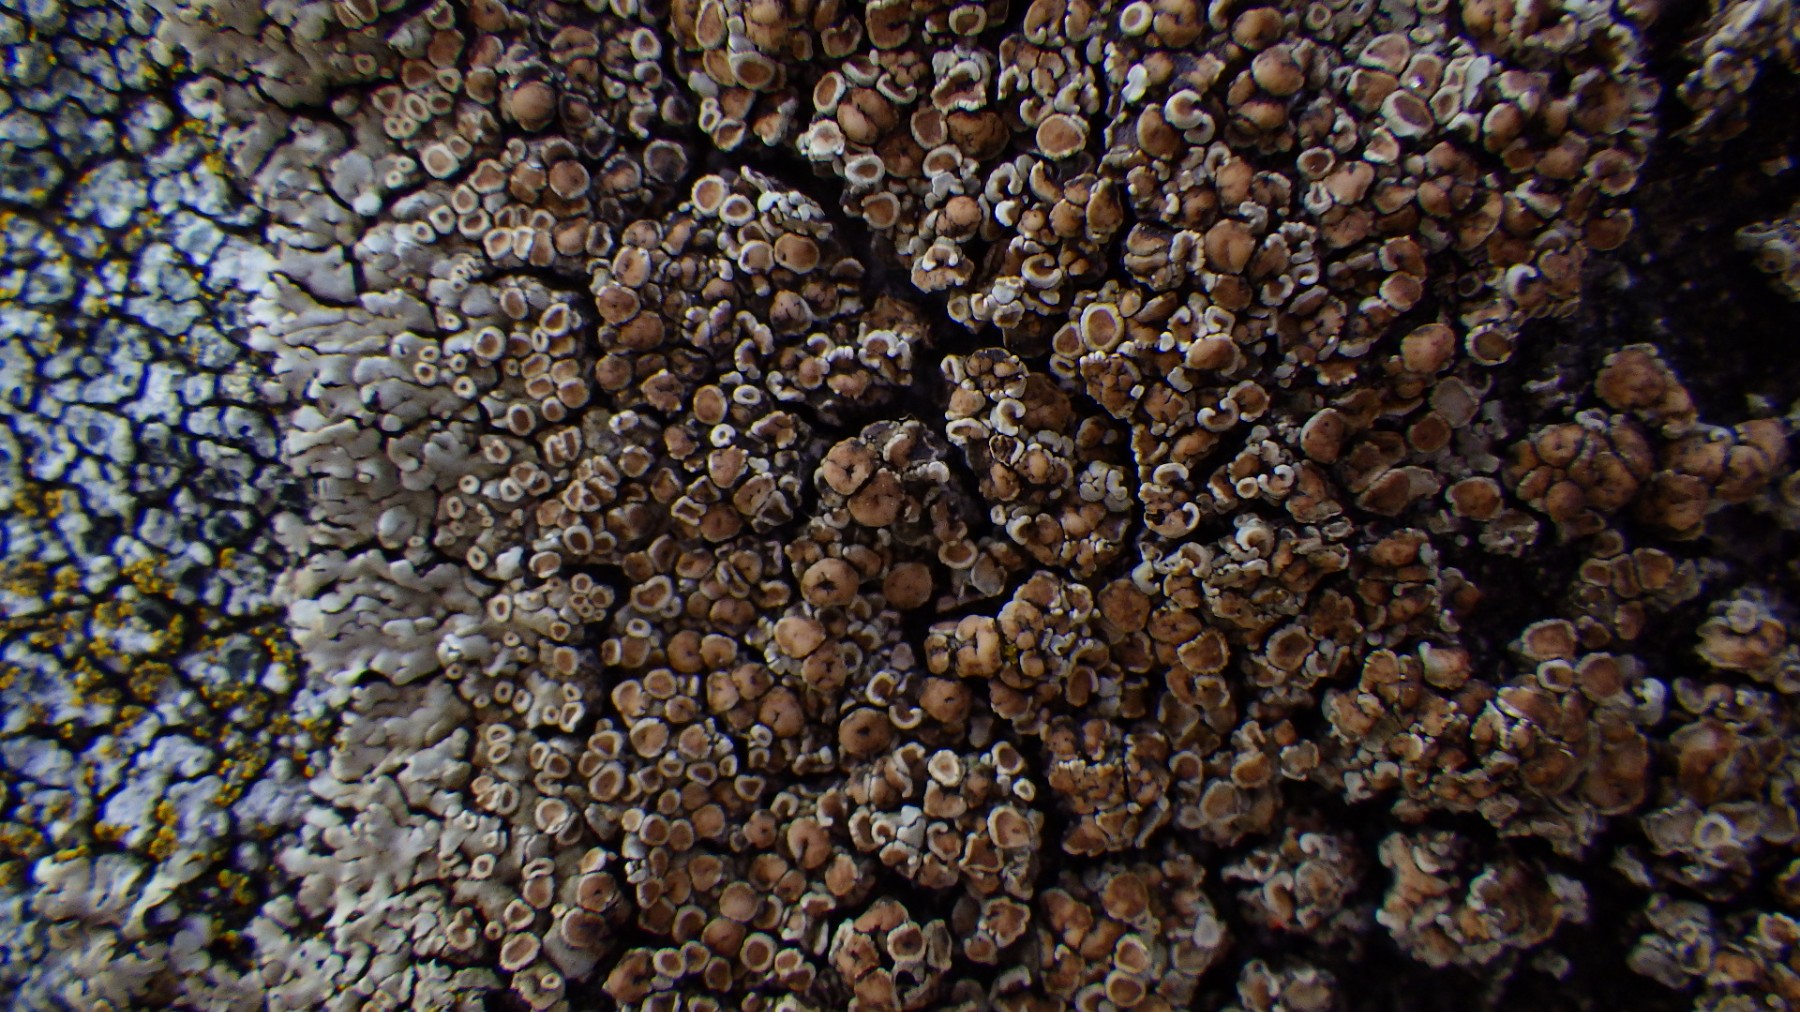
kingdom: Fungi
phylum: Ascomycota
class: Lecanoromycetes
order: Lecanorales
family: Lecanoraceae
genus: Protoparmeliopsis
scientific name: Protoparmeliopsis muralis
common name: randfliget kantskivelav
